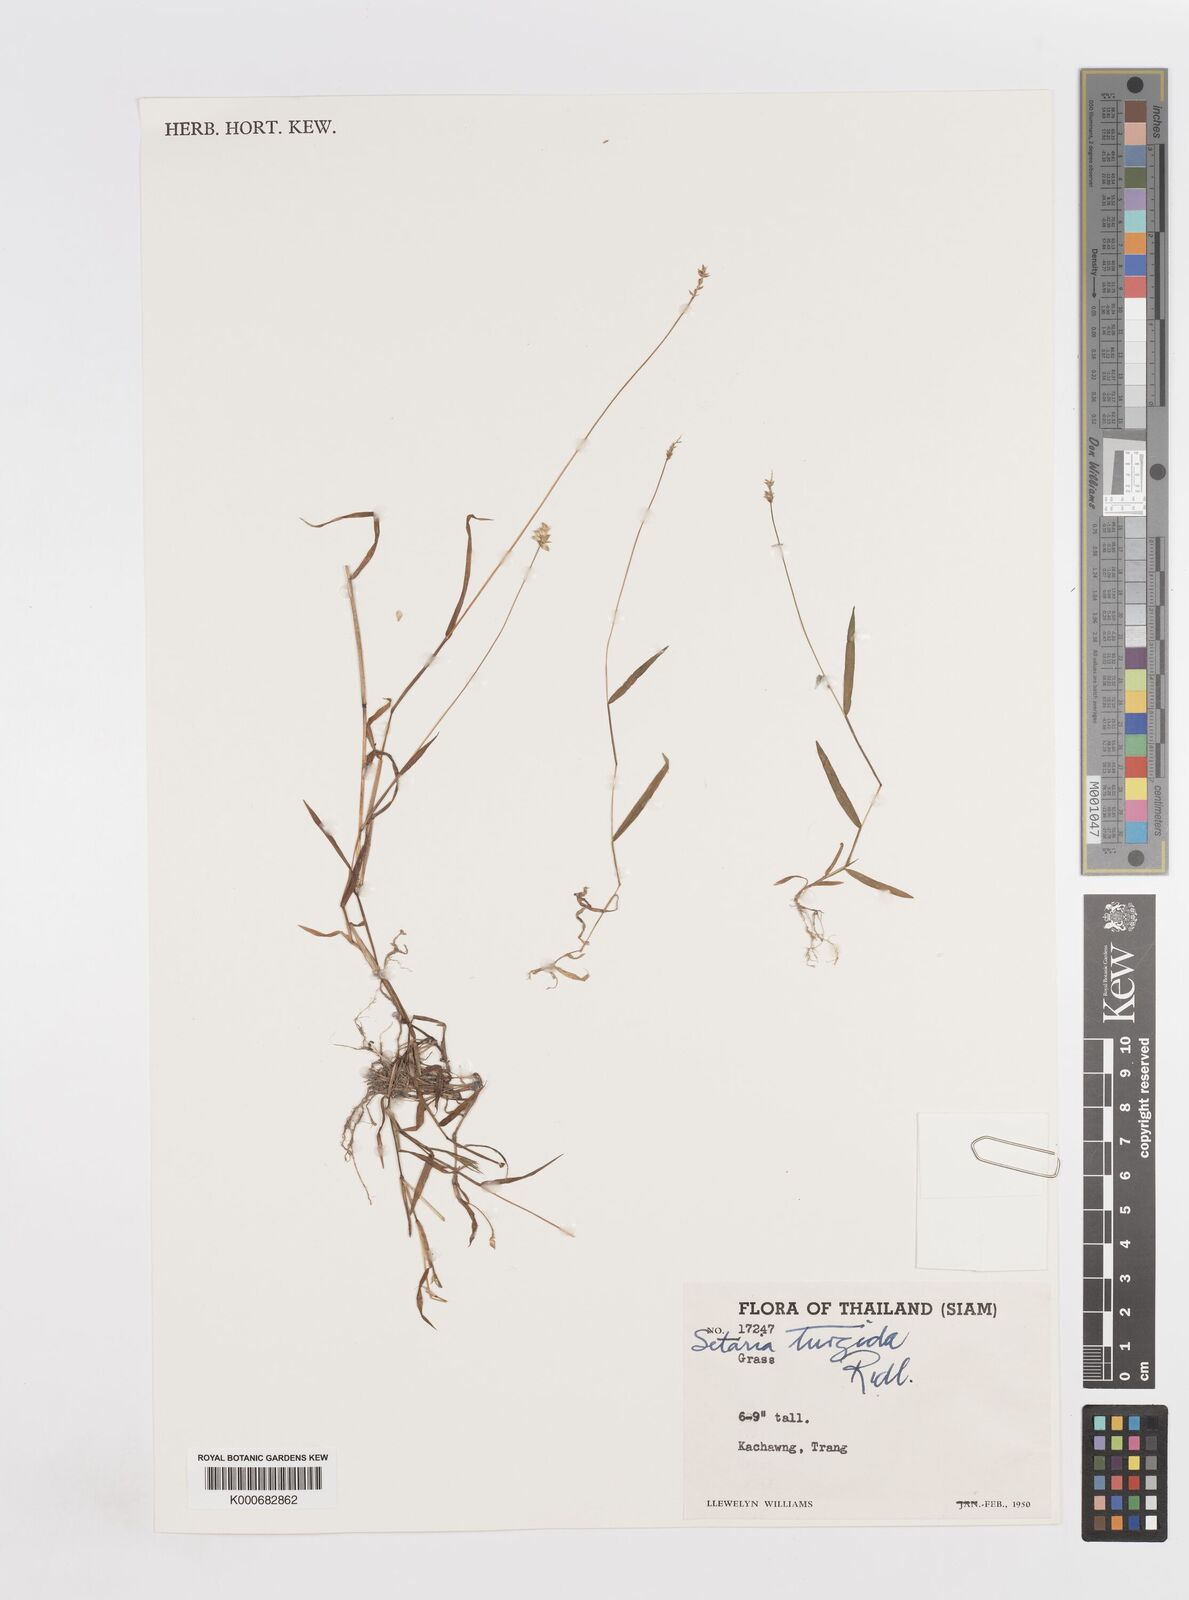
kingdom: Plantae
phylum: Tracheophyta
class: Liliopsida
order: Poales
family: Poaceae
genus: Sacciolepis
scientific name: Sacciolepis indica
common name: Glenwoodgrass
